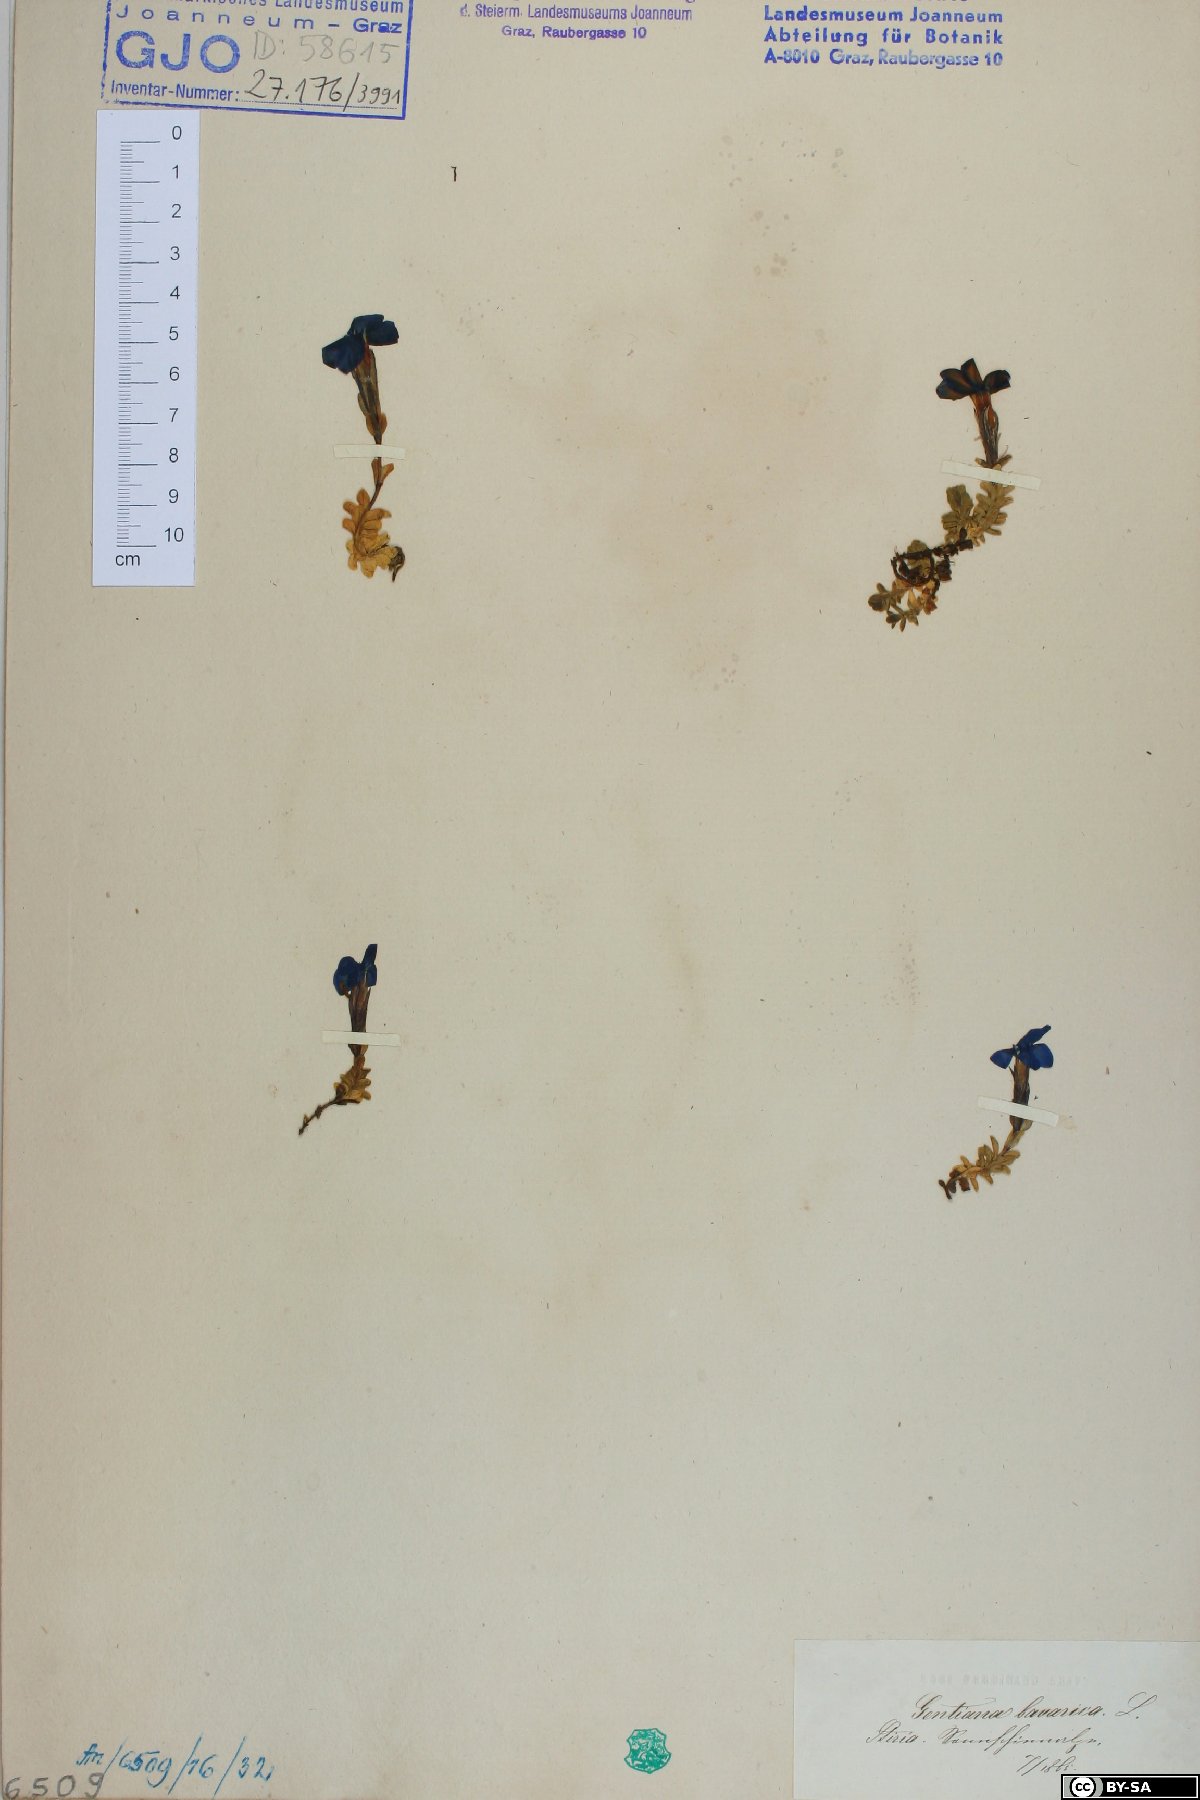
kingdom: Plantae
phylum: Tracheophyta
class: Magnoliopsida
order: Gentianales
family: Gentianaceae
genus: Gentiana
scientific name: Gentiana bavarica
